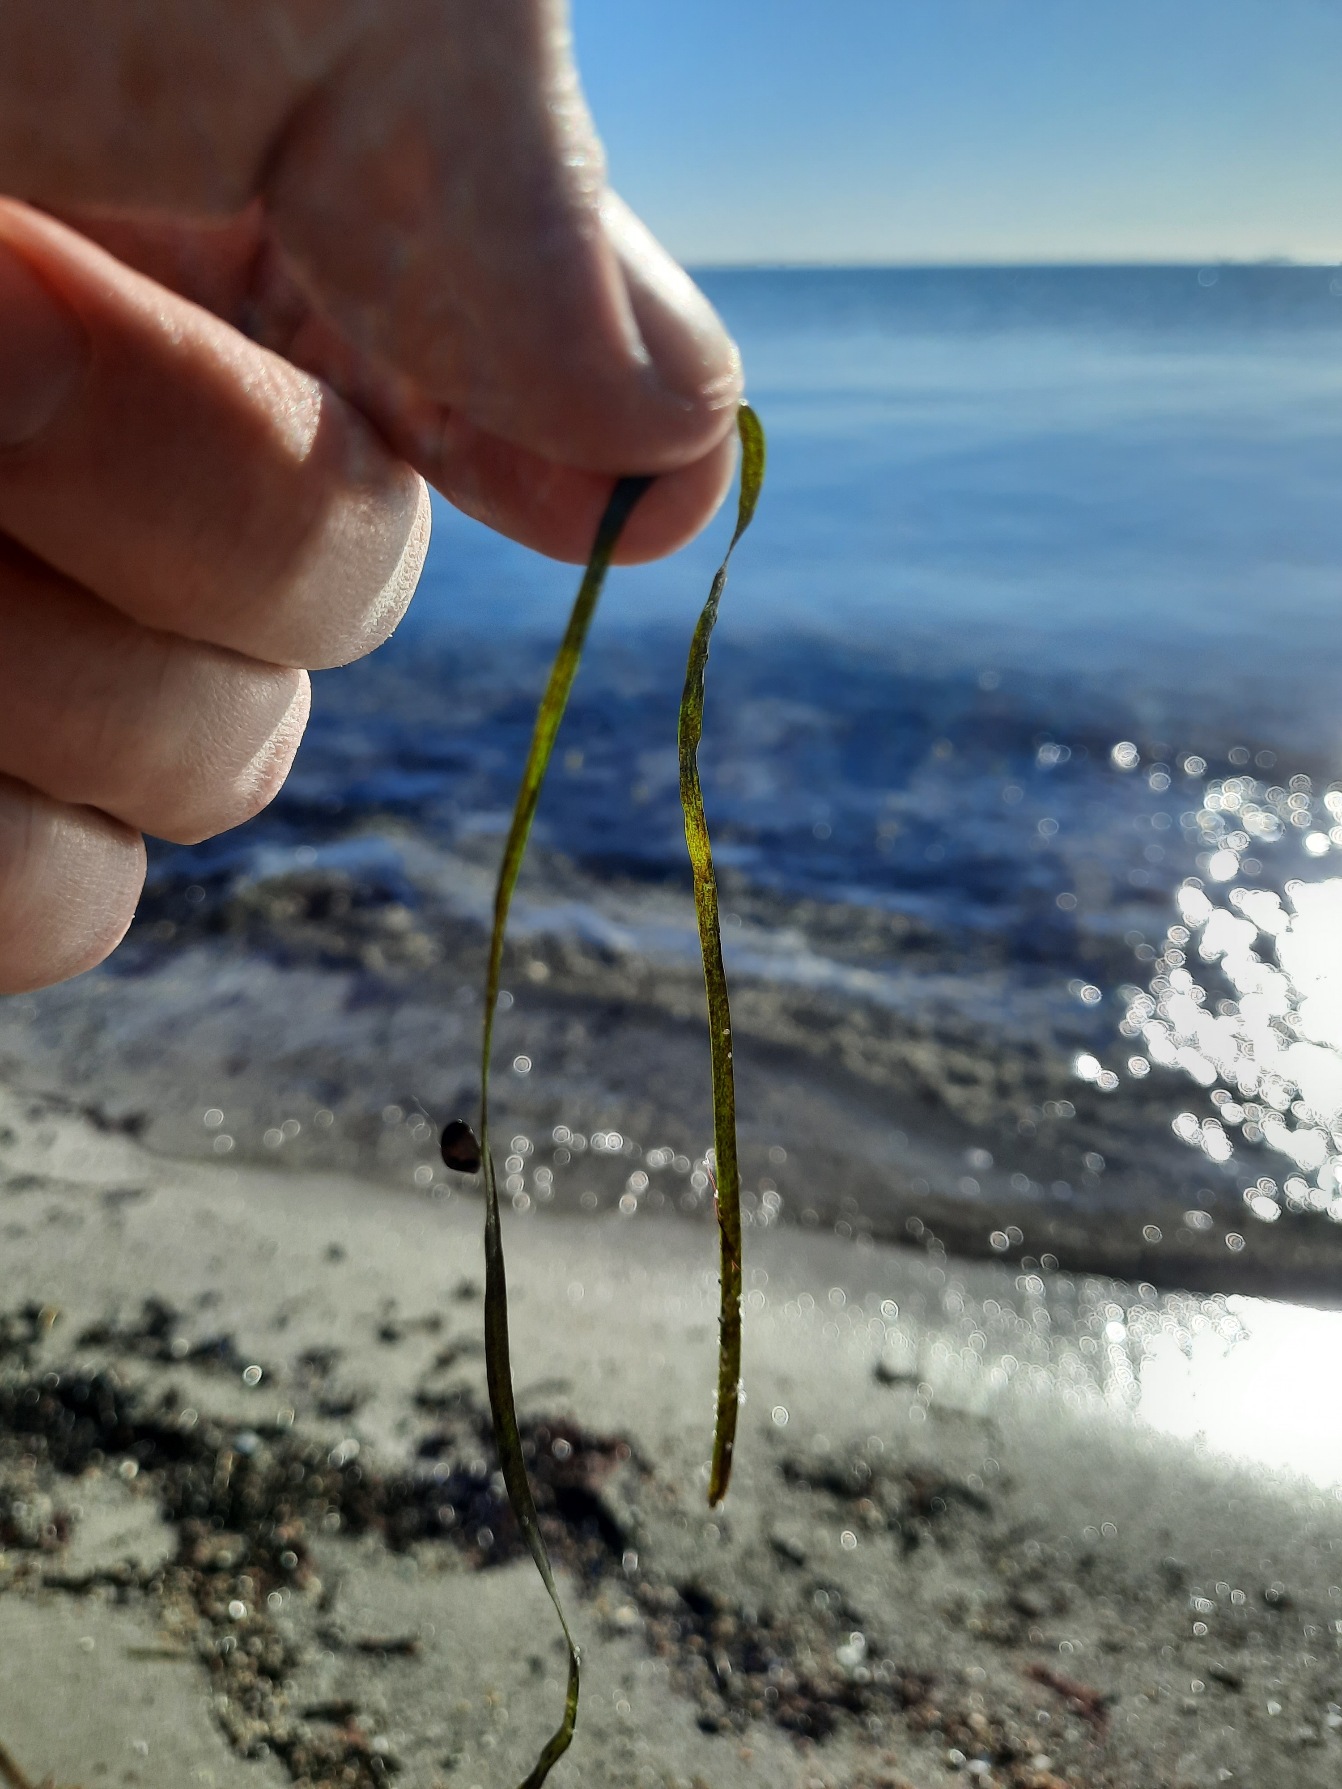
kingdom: Plantae
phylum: Tracheophyta
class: Liliopsida
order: Alismatales
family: Zosteraceae
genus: Zostera
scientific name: Zostera marina
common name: Almindelig bændeltang
